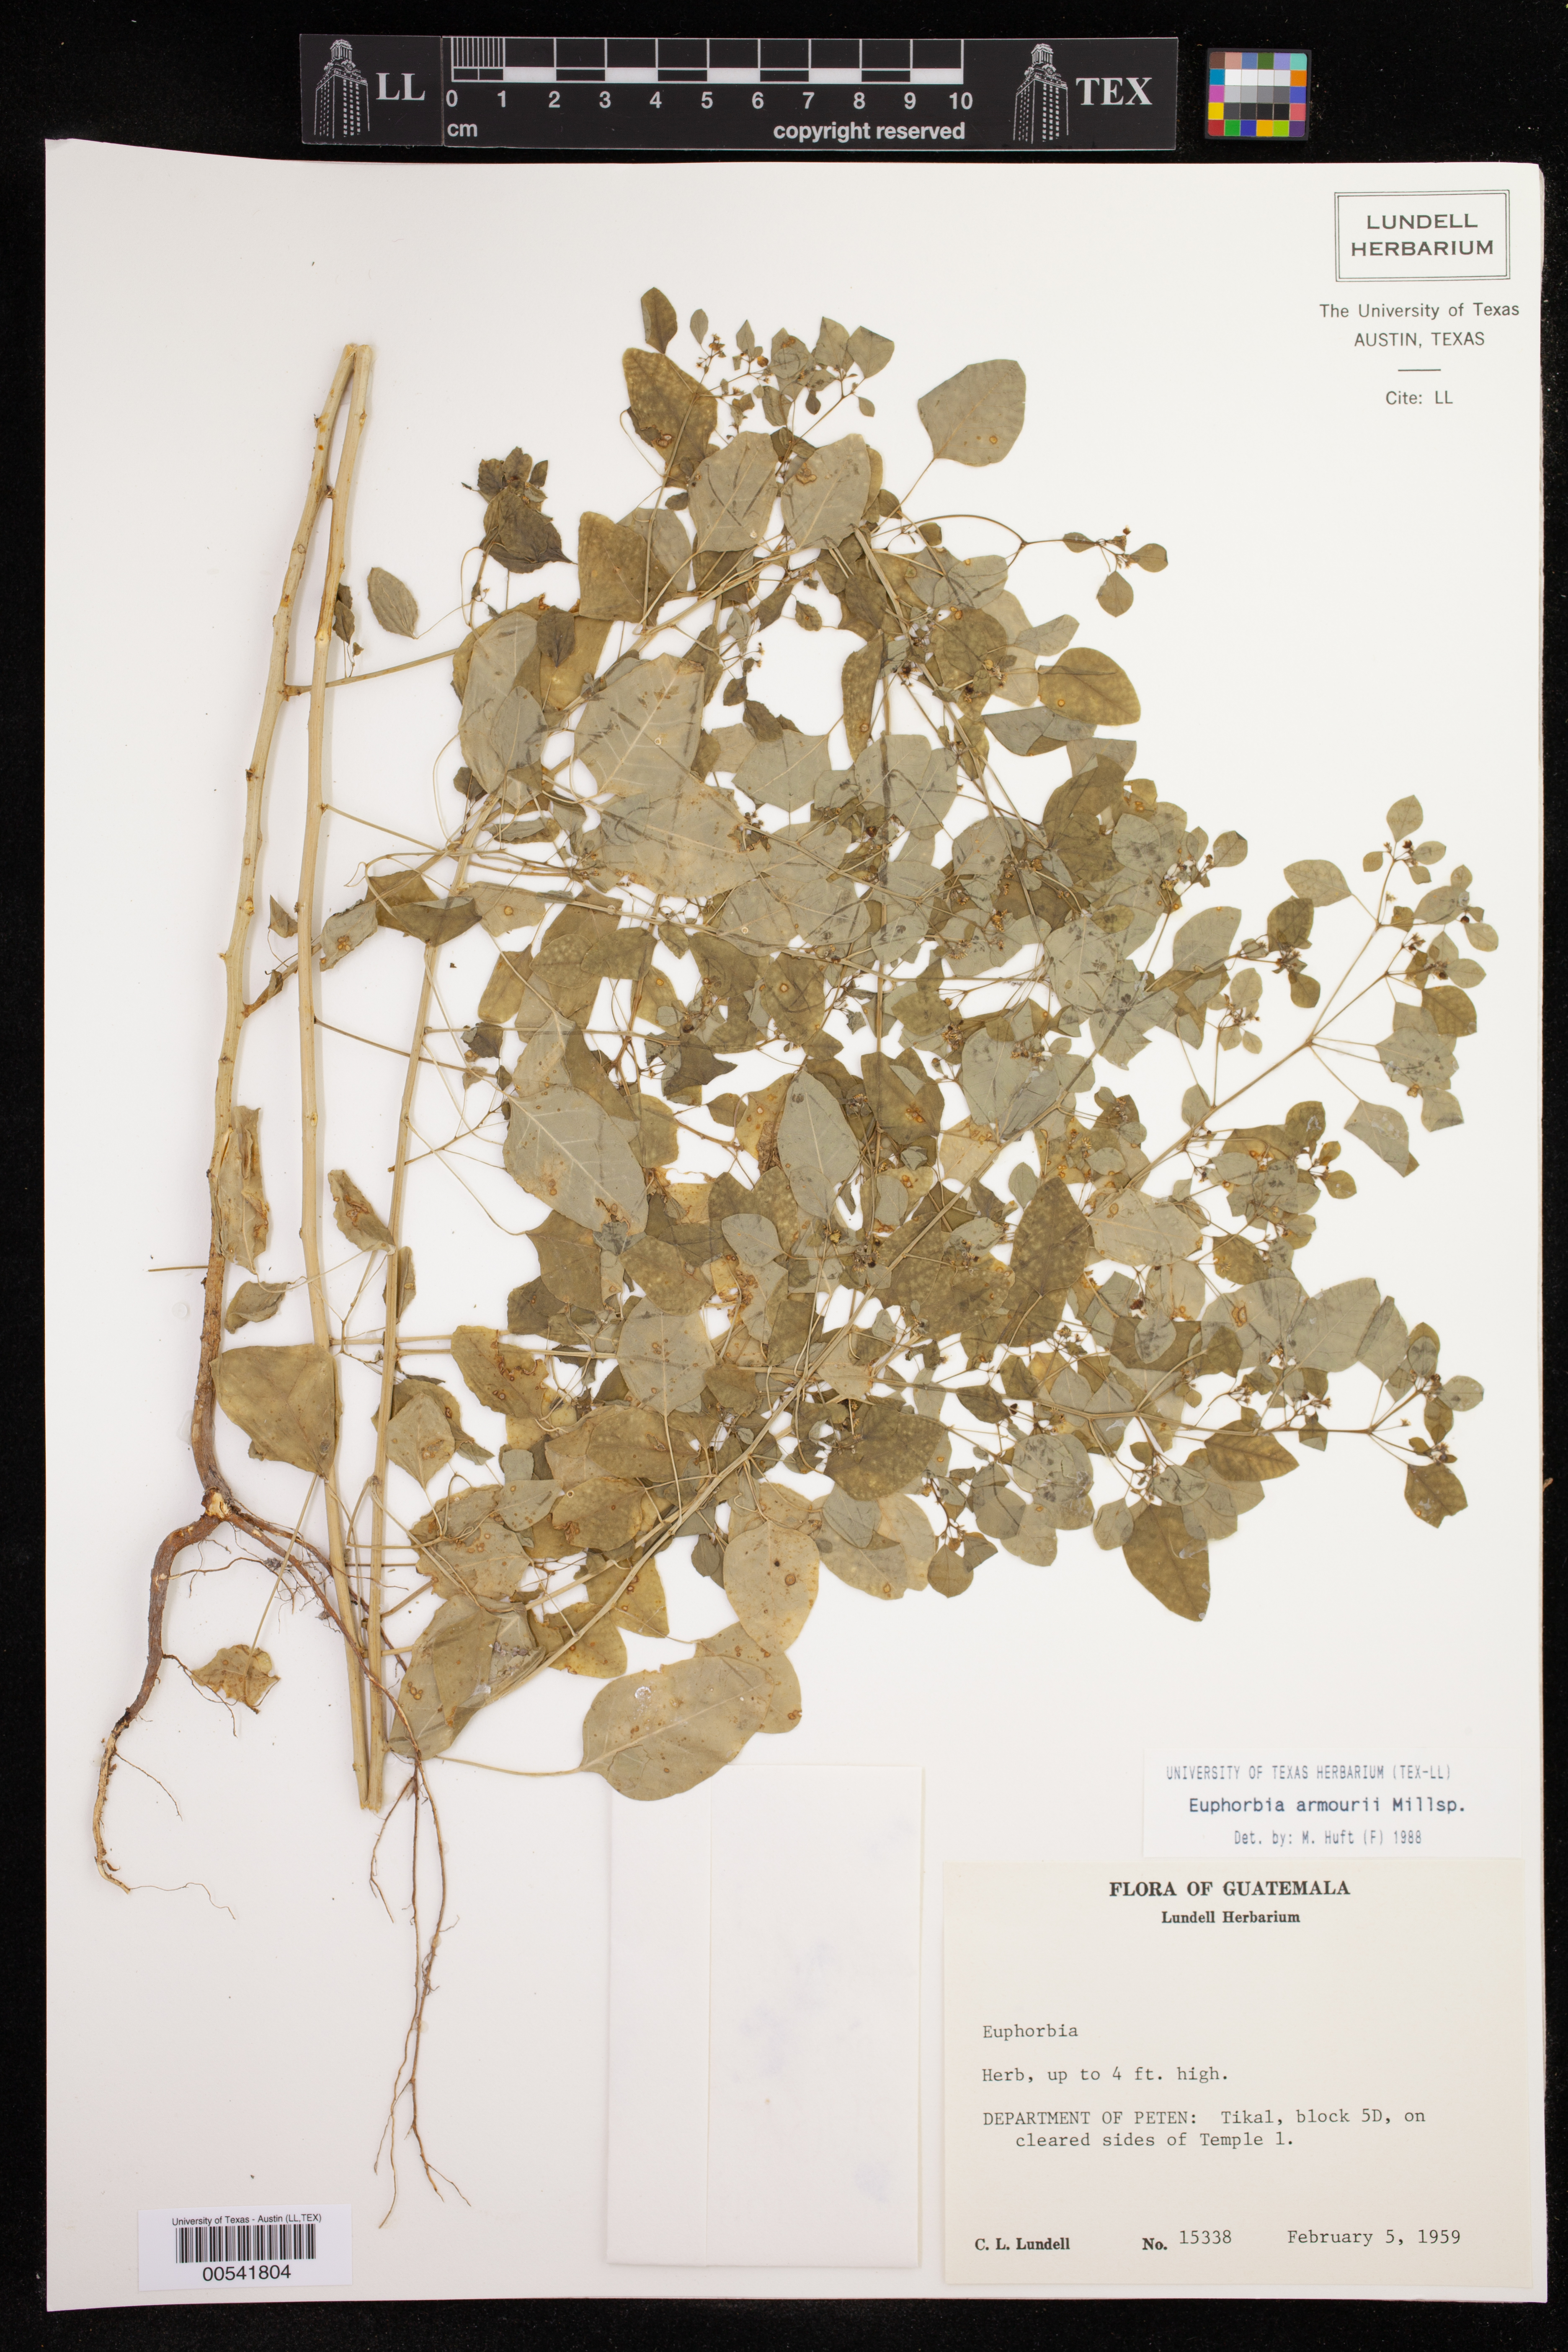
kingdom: Plantae
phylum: Tracheophyta
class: Magnoliopsida
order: Malpighiales
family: Euphorbiaceae
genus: Euphorbia
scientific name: Euphorbia armourii
